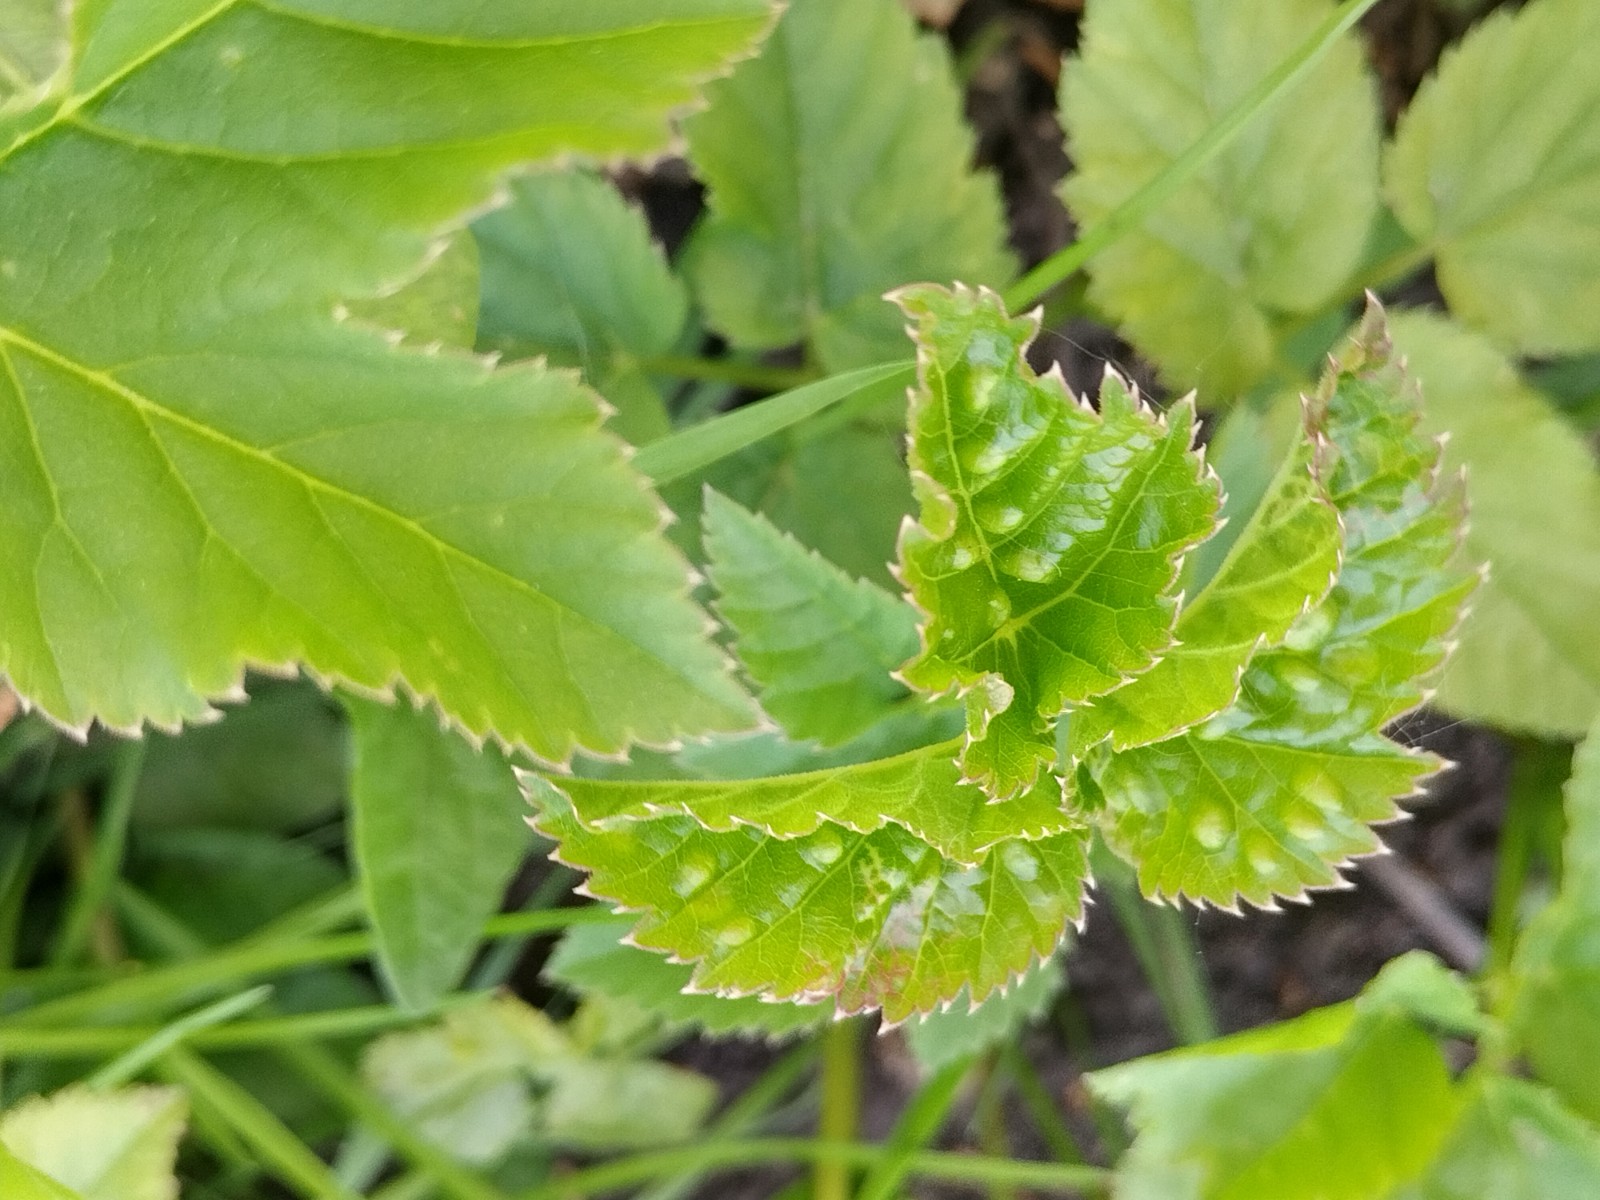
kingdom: Fungi
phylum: Ascomycota
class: Taphrinomycetes
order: Taphrinales
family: Taphrinaceae
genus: Protomyces
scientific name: Protomyces macrosporus
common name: skvalderkål-vablesæk
